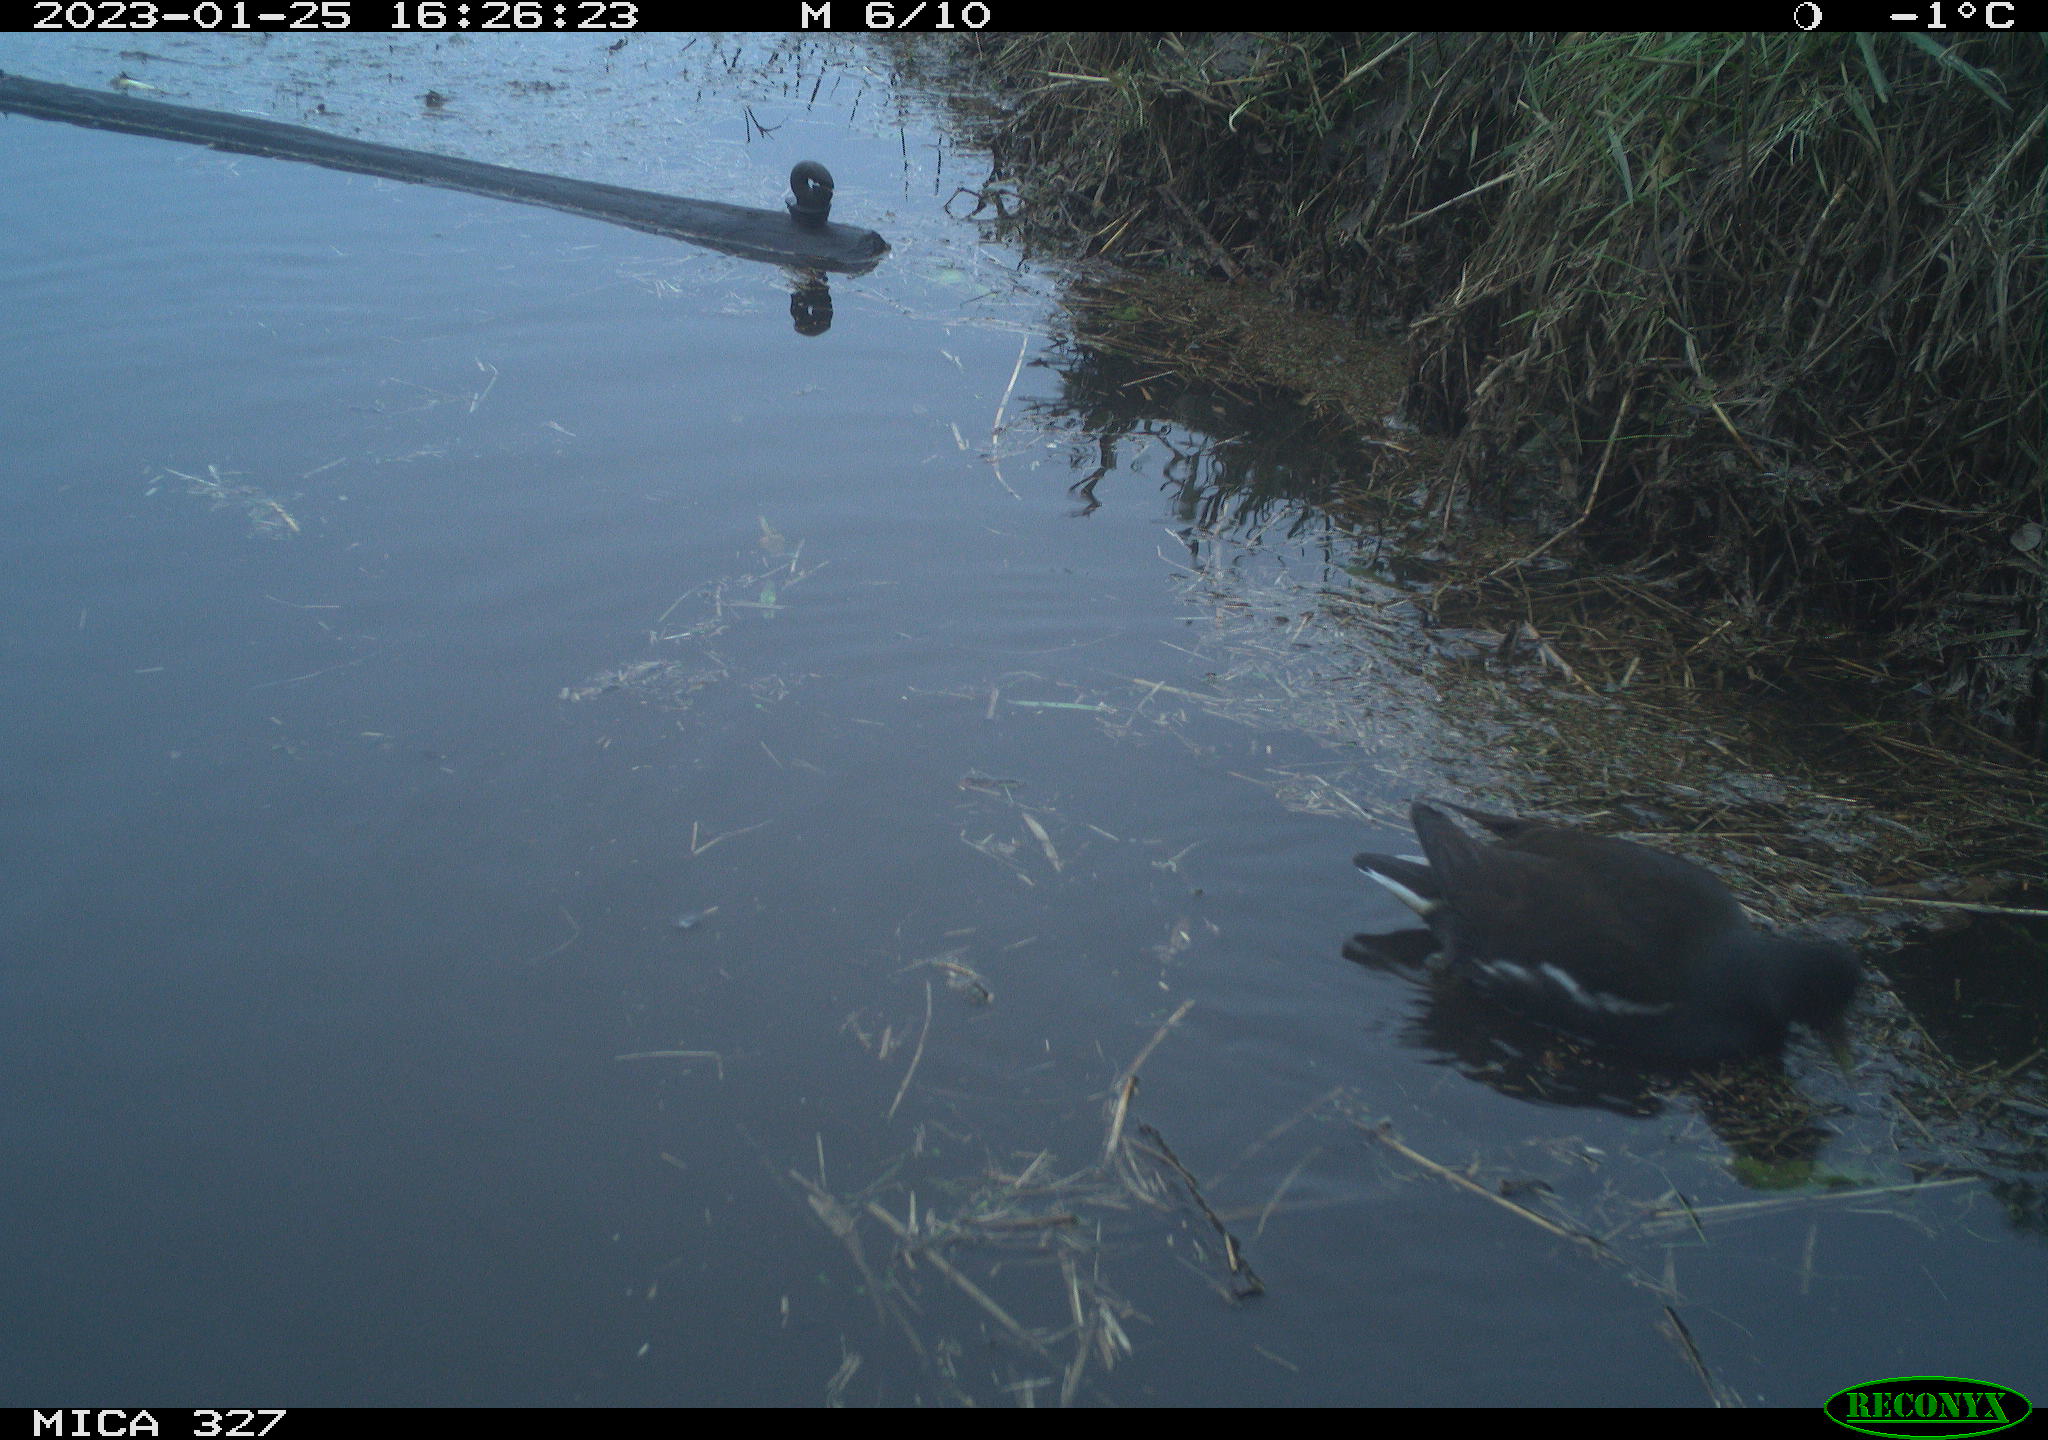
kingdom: Animalia
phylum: Chordata
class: Aves
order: Podicipediformes
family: Podicipedidae
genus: Tachybaptus
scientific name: Tachybaptus ruficollis
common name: Little grebe
